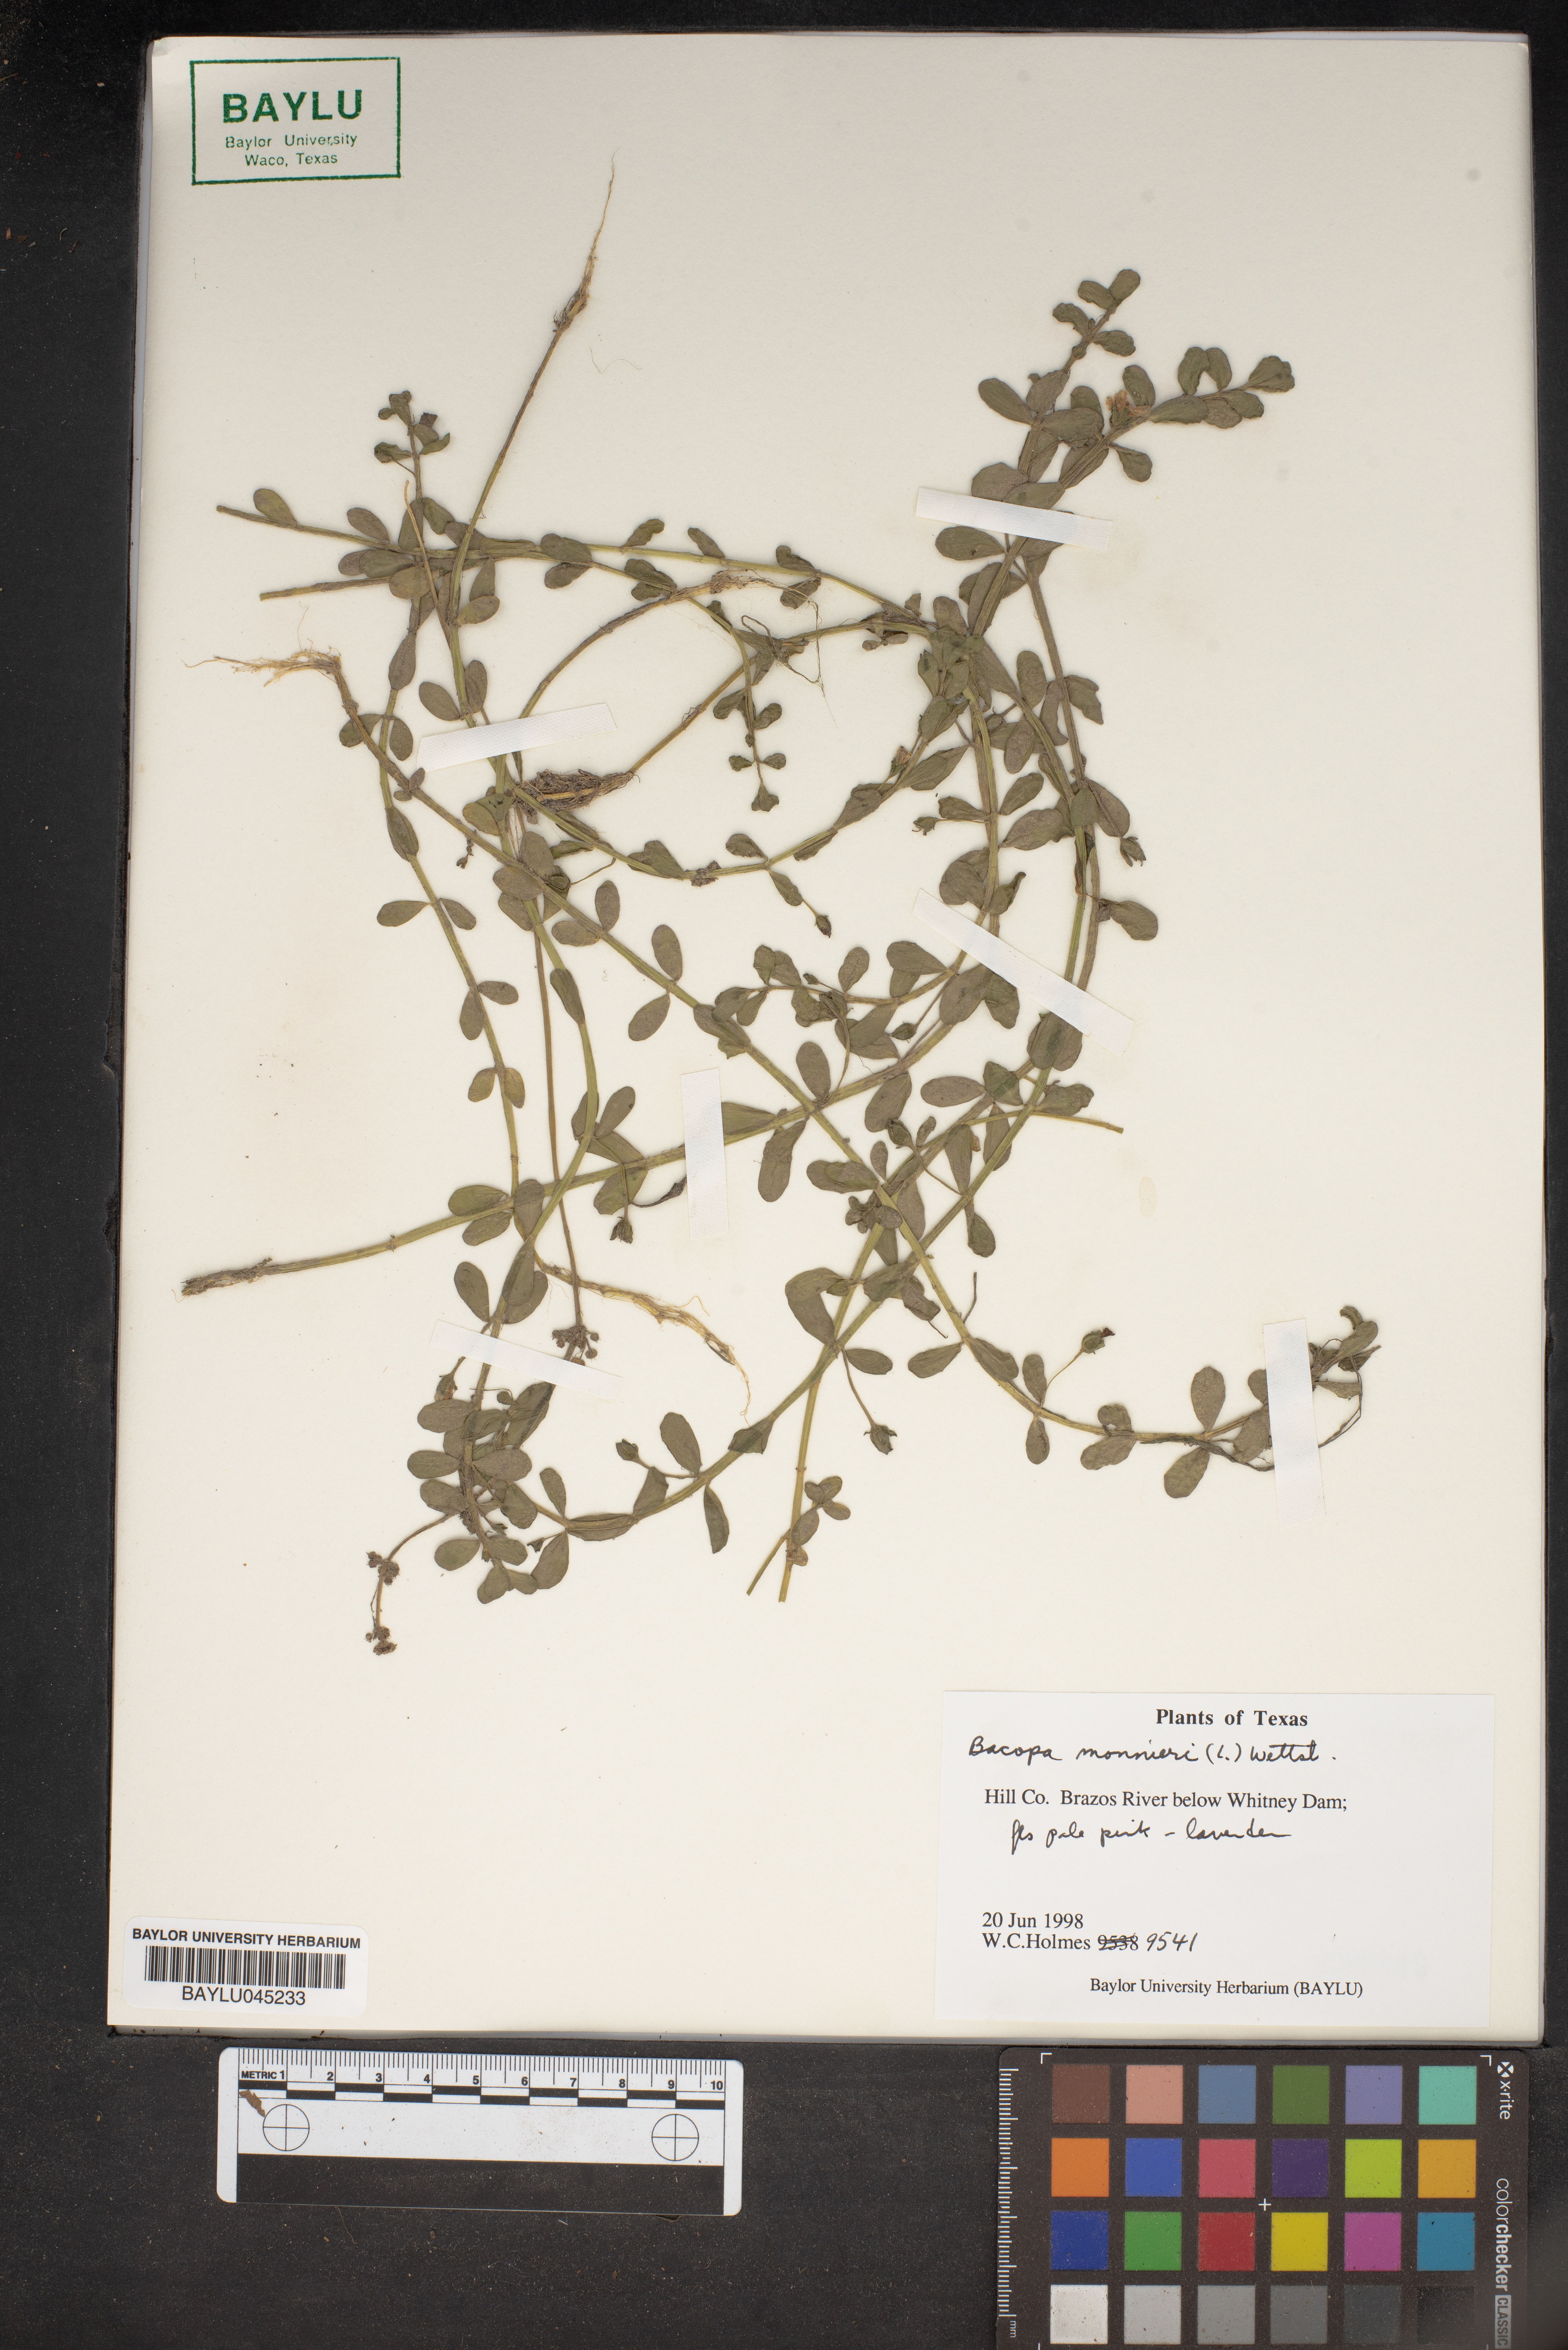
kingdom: Plantae
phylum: Tracheophyta
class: Magnoliopsida
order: Lamiales
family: Plantaginaceae
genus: Bacopa
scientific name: Bacopa monnieri
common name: Indian-pennywort
